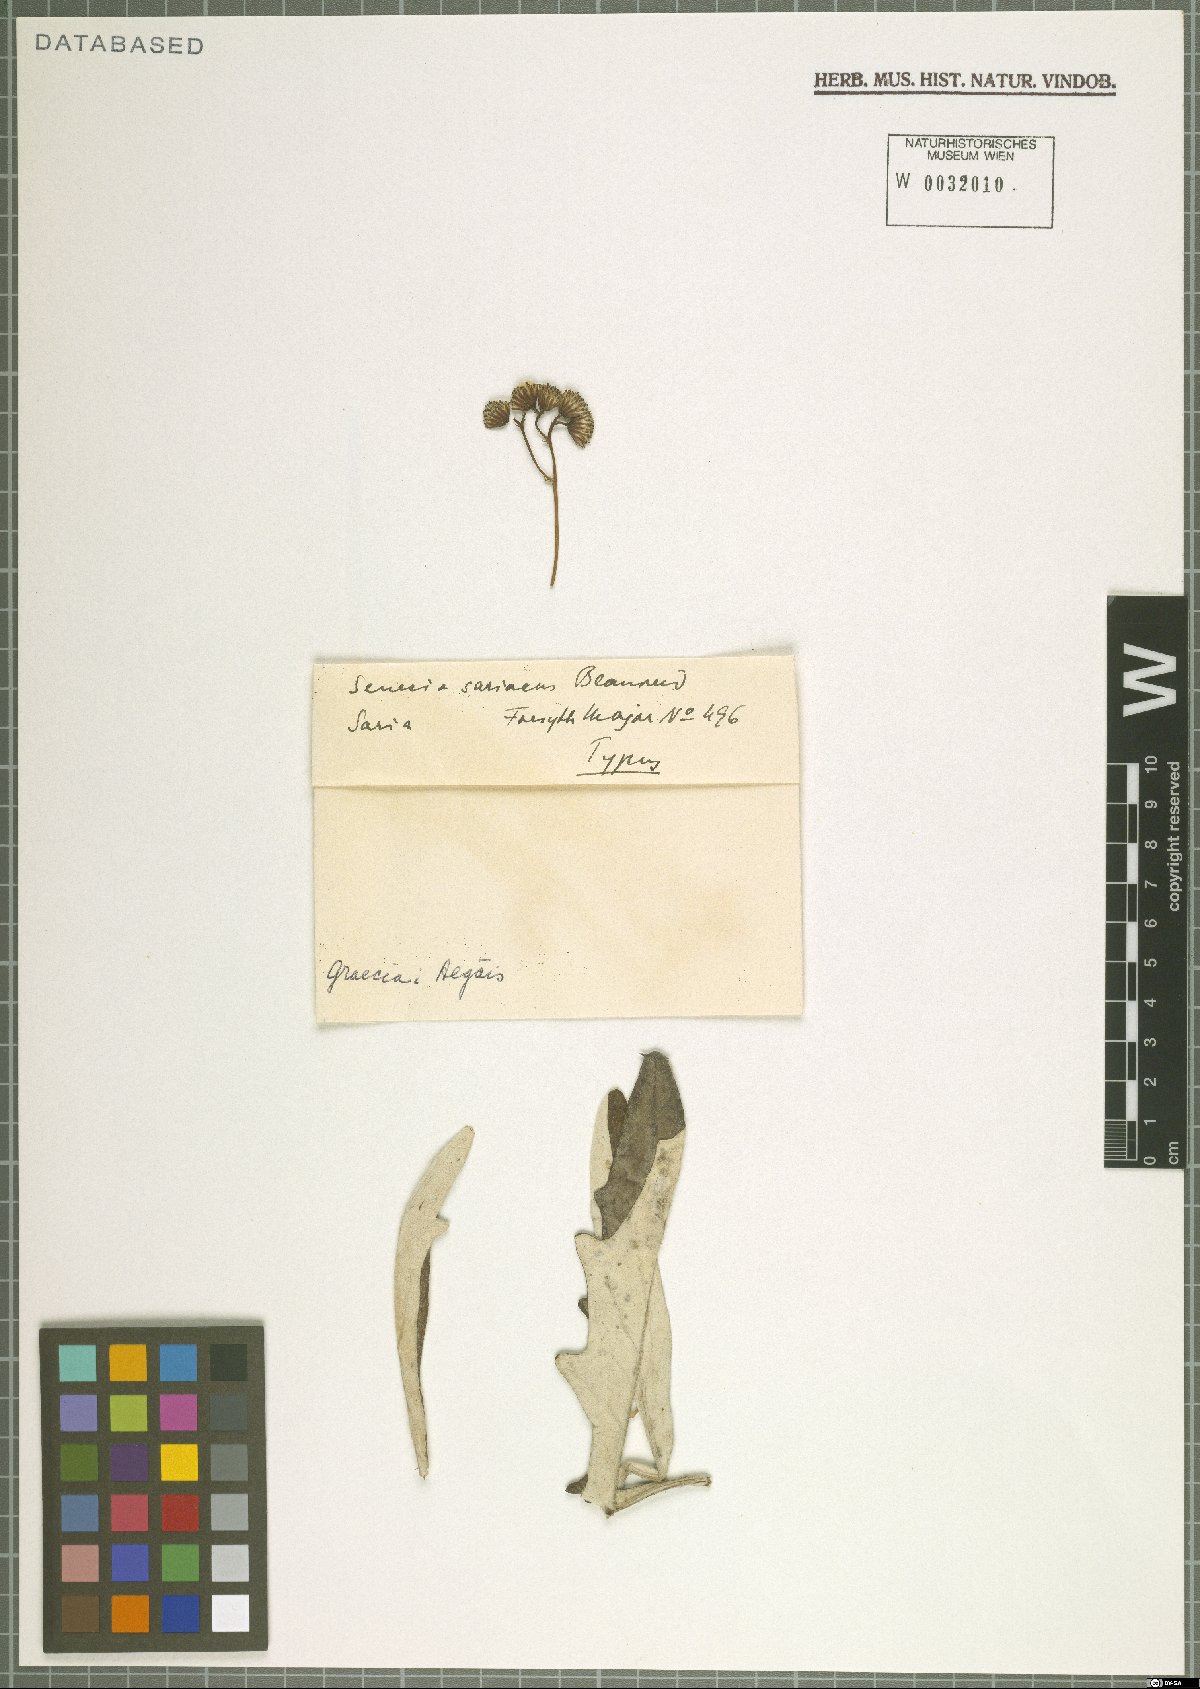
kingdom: Plantae
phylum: Tracheophyta
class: Magnoliopsida
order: Asterales
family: Asteraceae
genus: Jacobaea
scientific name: Jacobaea gnaphalioides
